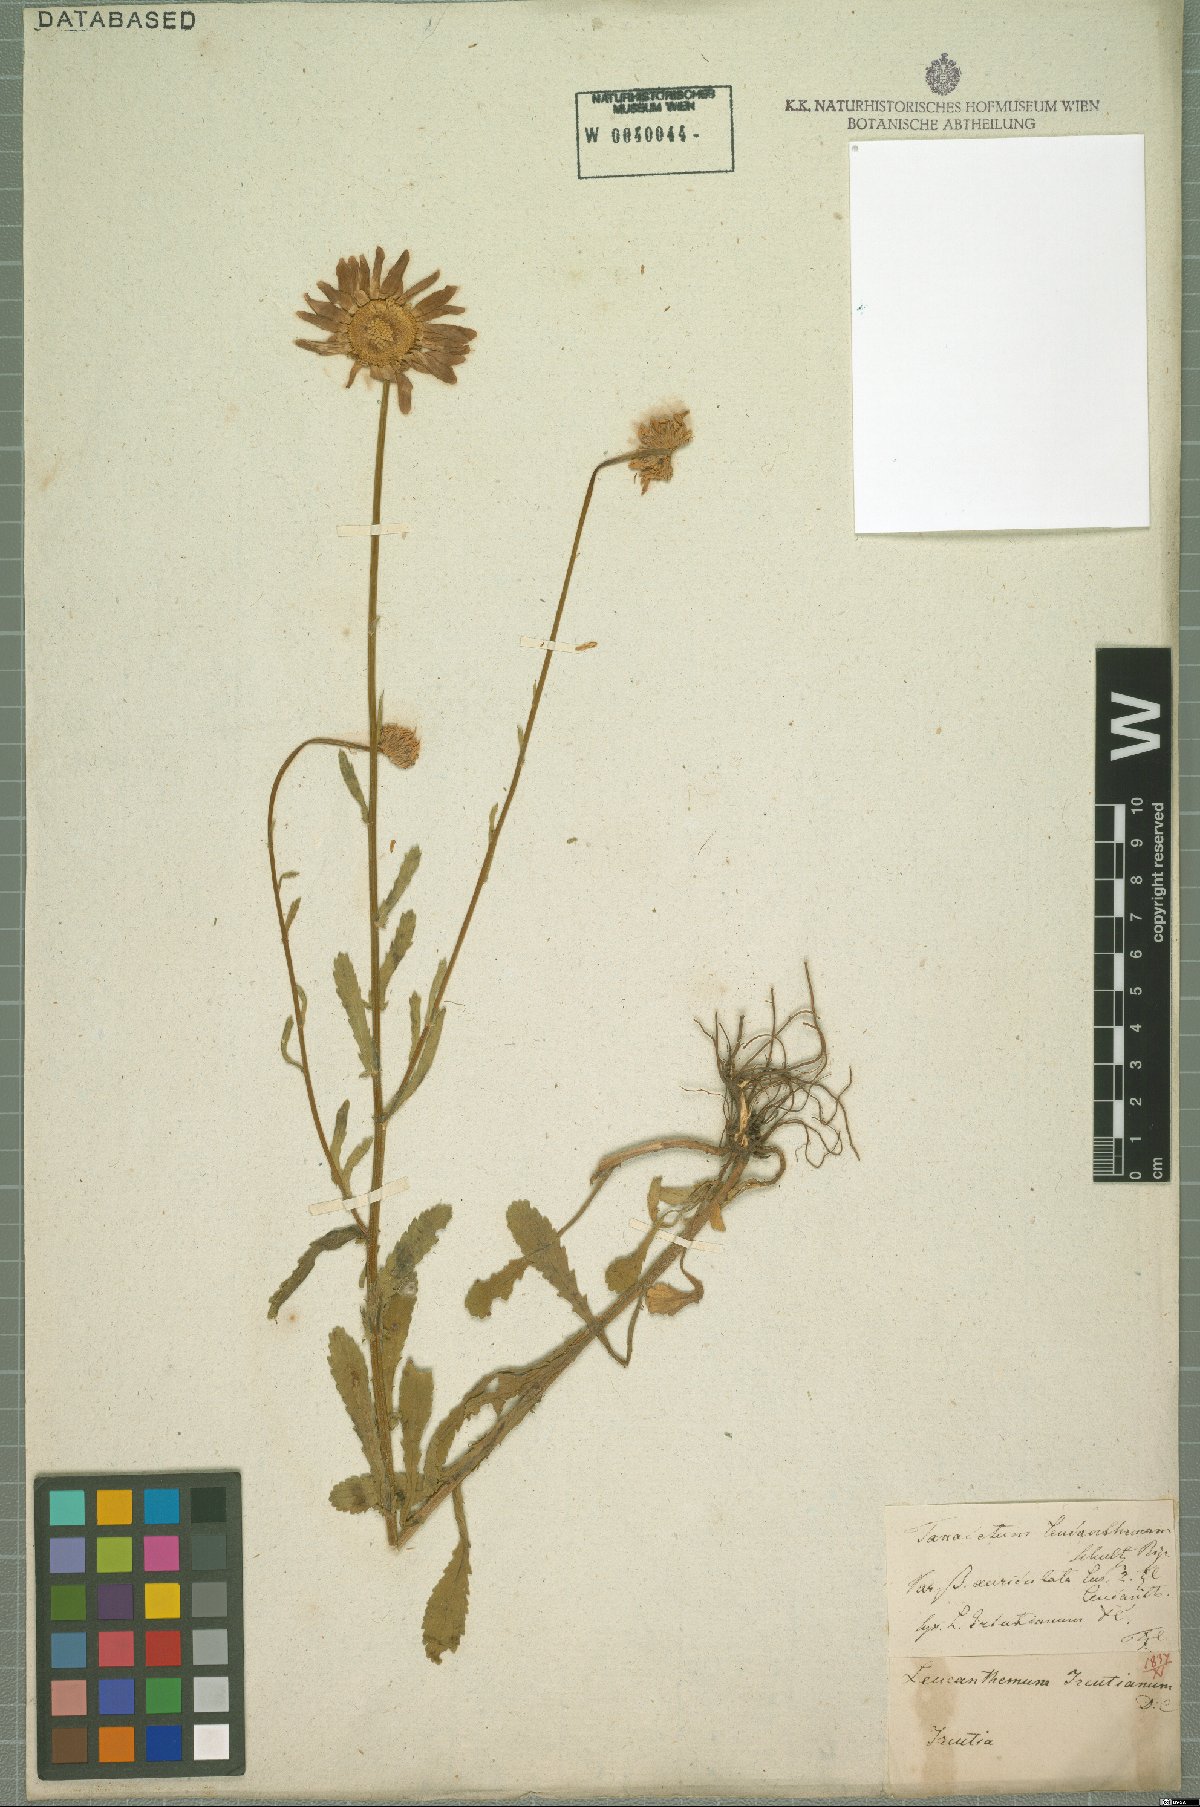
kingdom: Plantae
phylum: Tracheophyta
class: Magnoliopsida
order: Asterales
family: Asteraceae
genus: Leucanthemum
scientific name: Leucanthemum ircutianum
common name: Daisy
